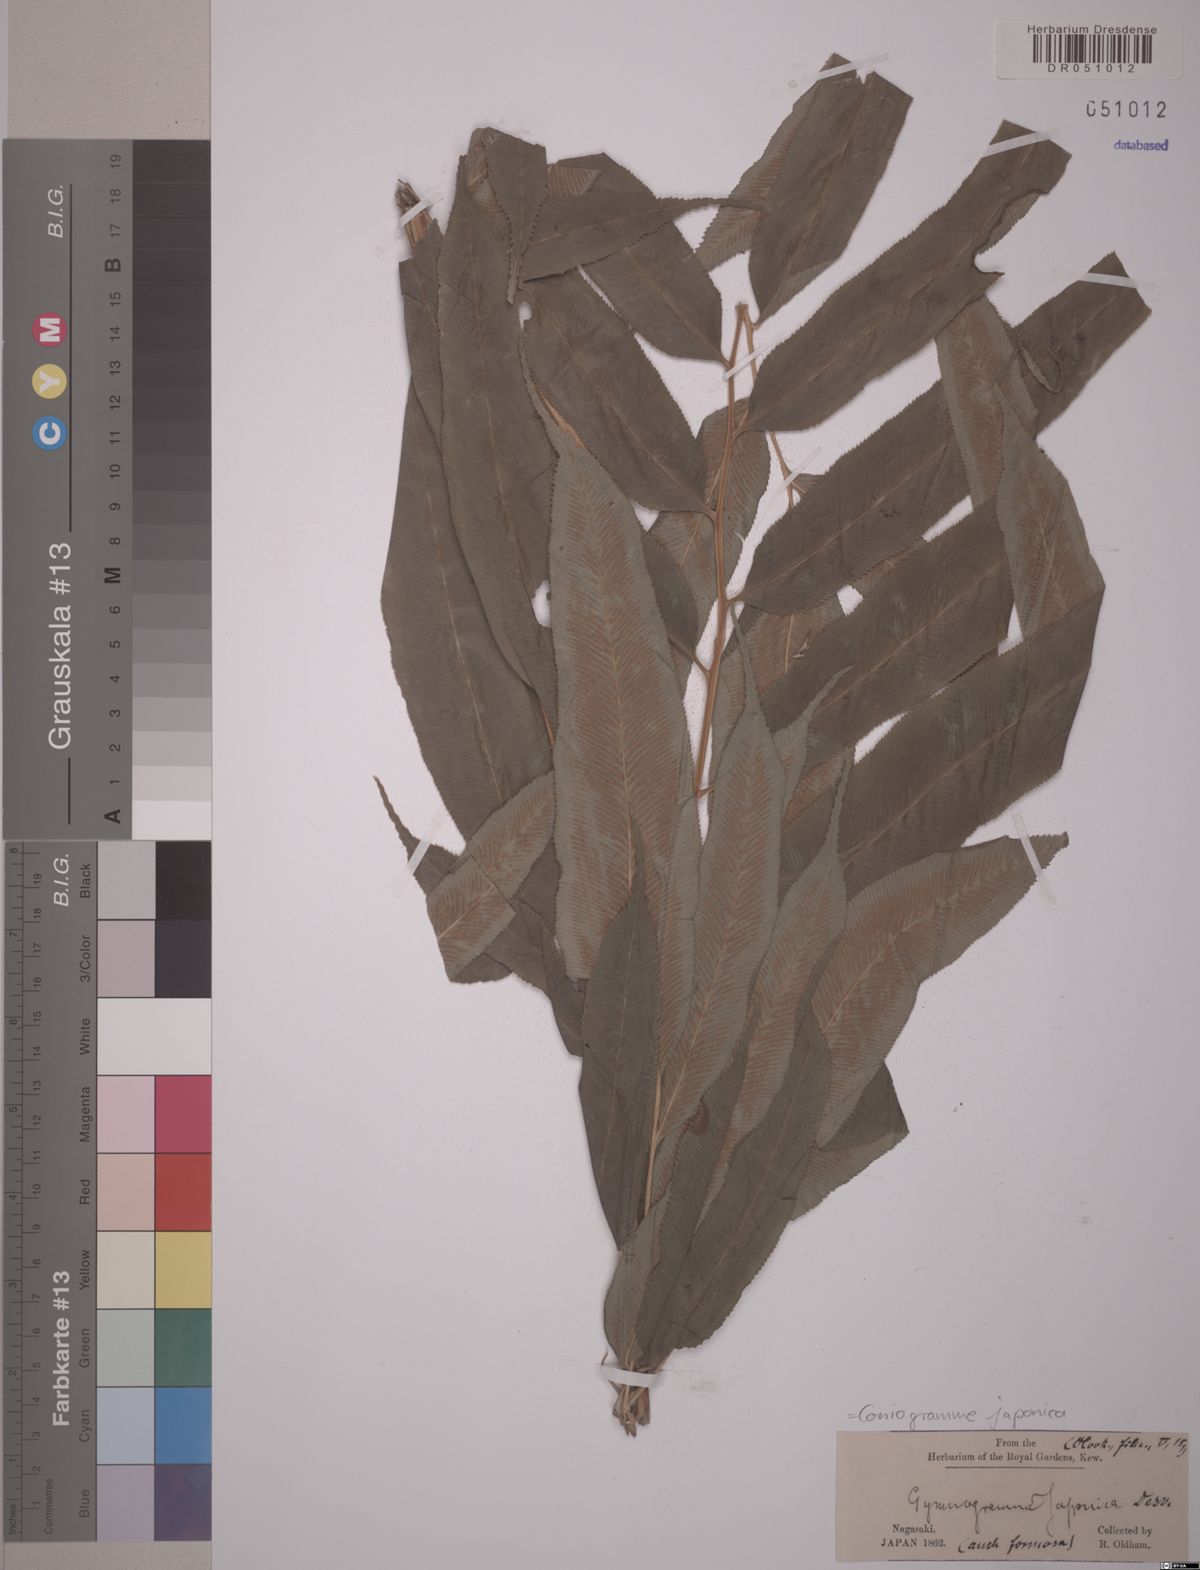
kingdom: Plantae
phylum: Tracheophyta
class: Polypodiopsida
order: Polypodiales
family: Pteridaceae
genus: Coniogramme
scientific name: Coniogramme japonica
